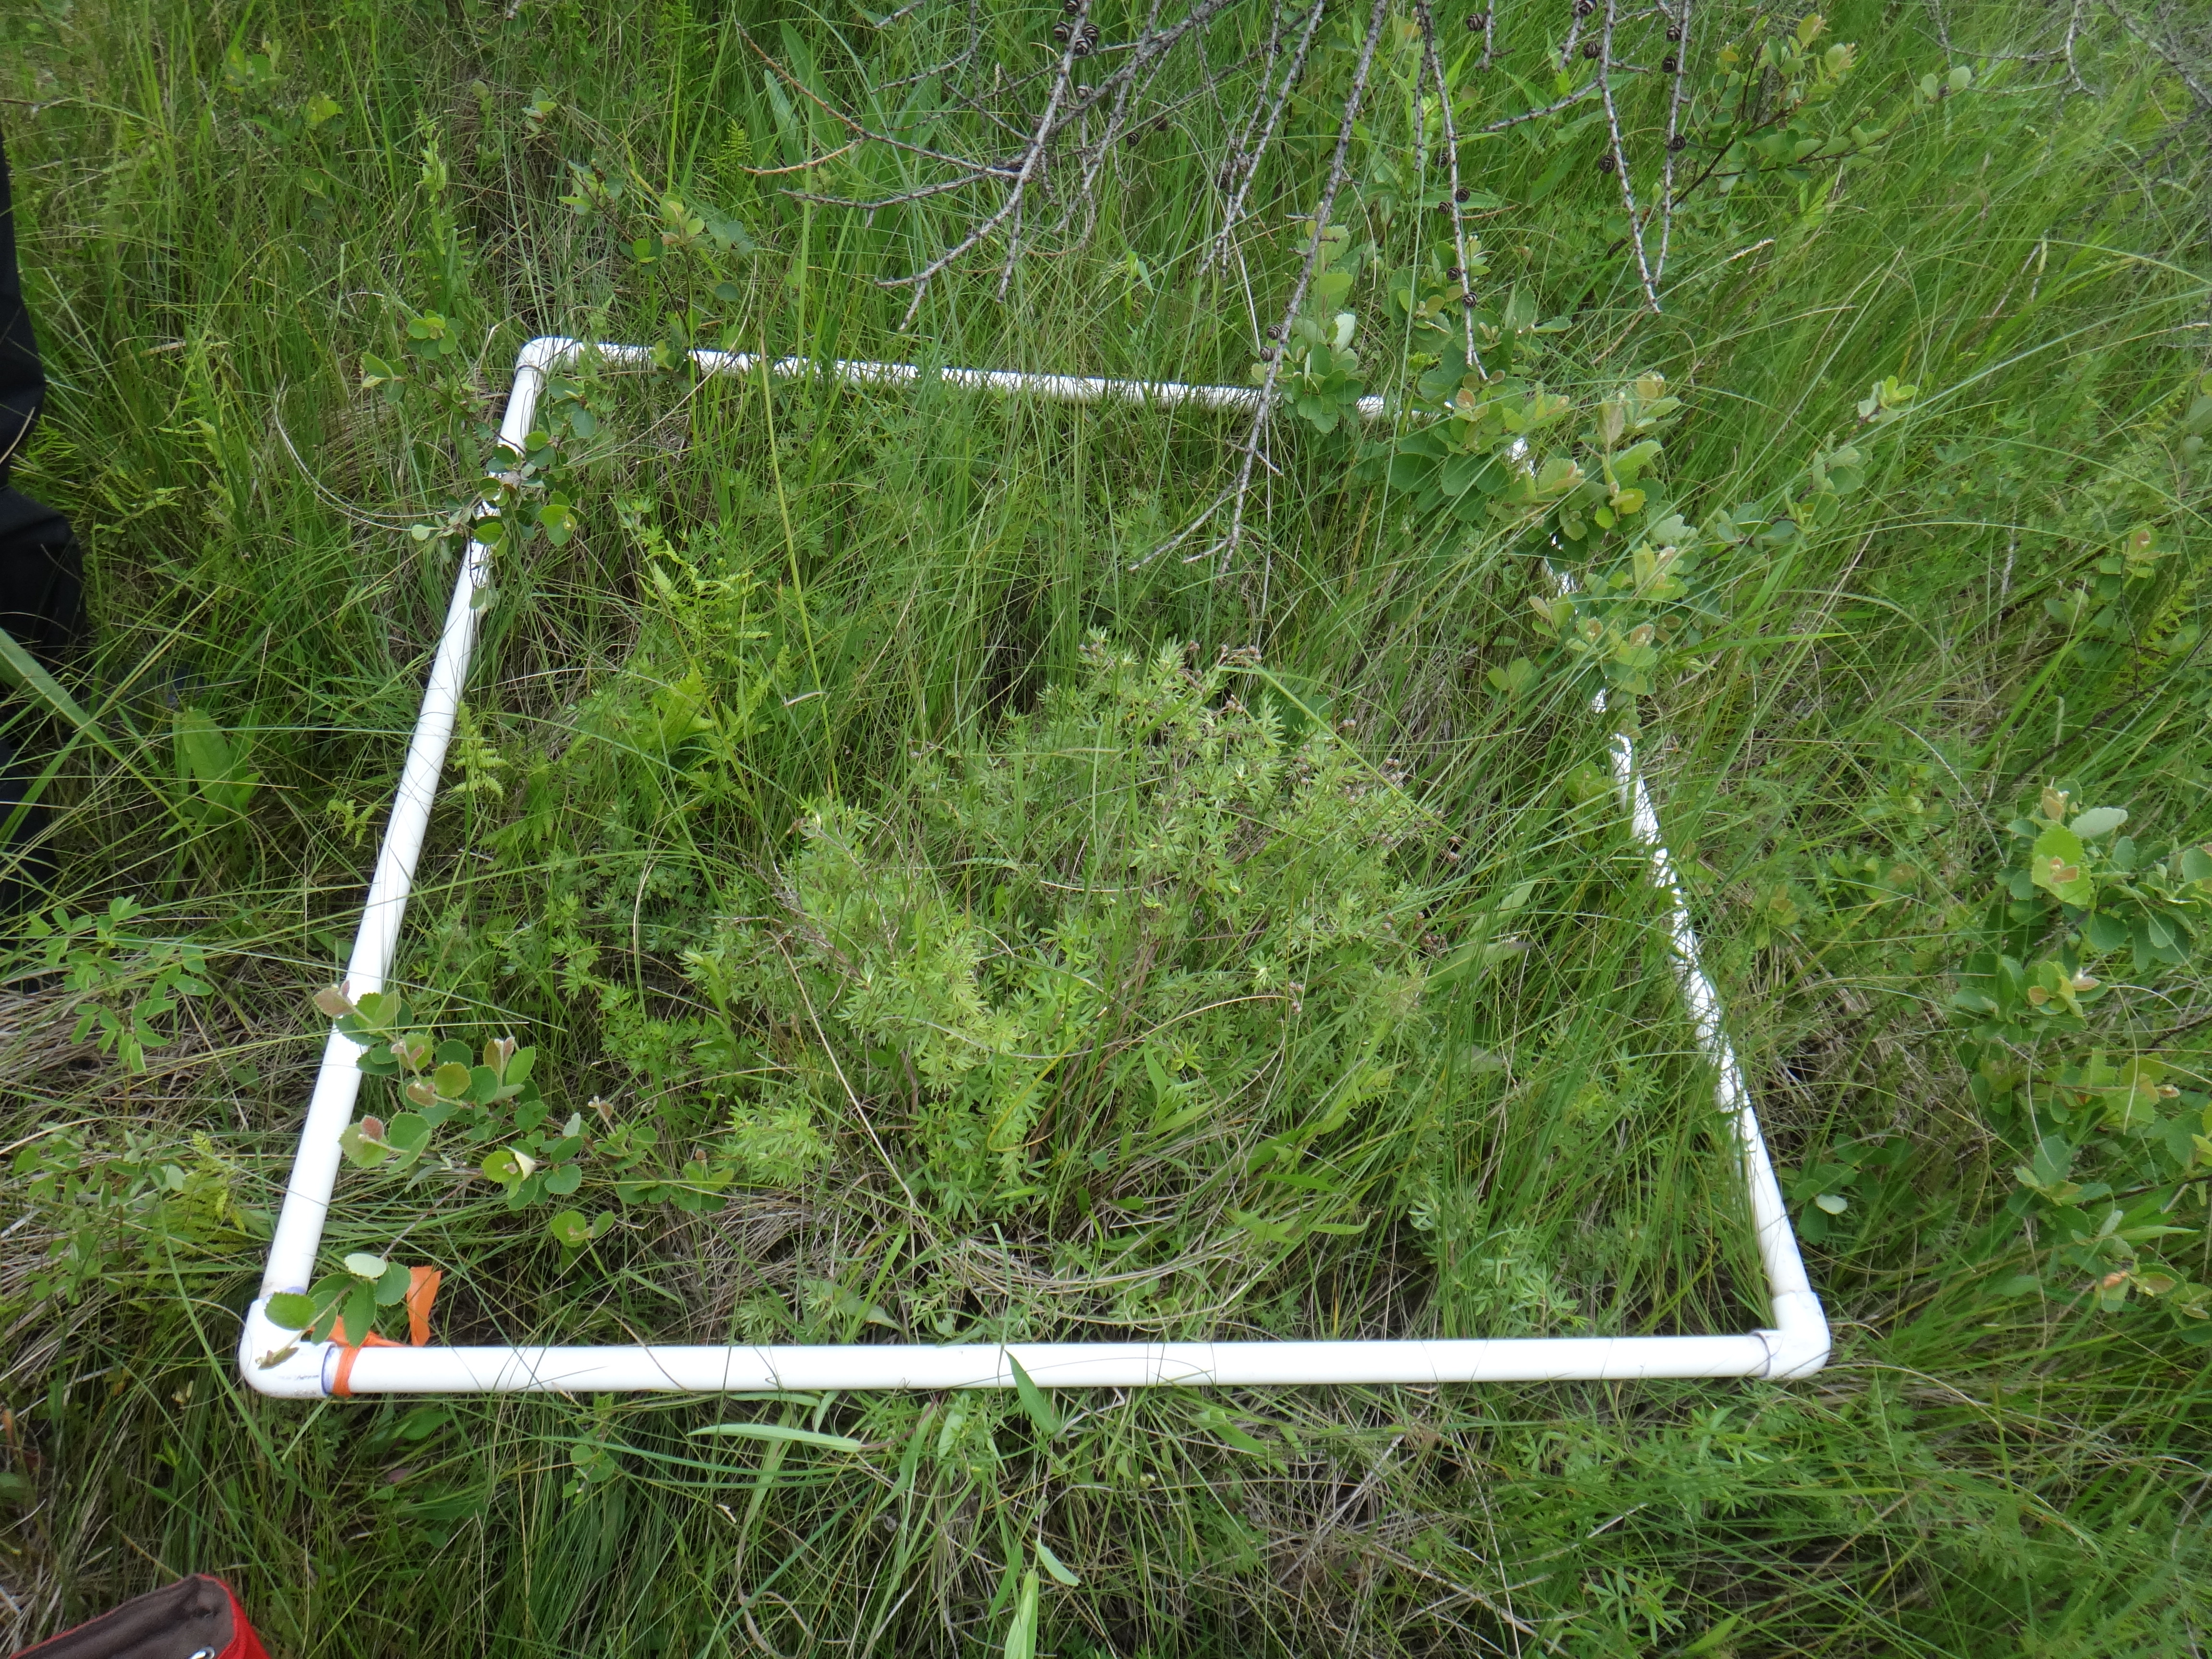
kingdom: Plantae
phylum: Tracheophyta
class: Liliopsida
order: Poales
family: Poaceae
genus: Muhlenbergia
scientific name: Muhlenbergia glomerata
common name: Bog muhly
